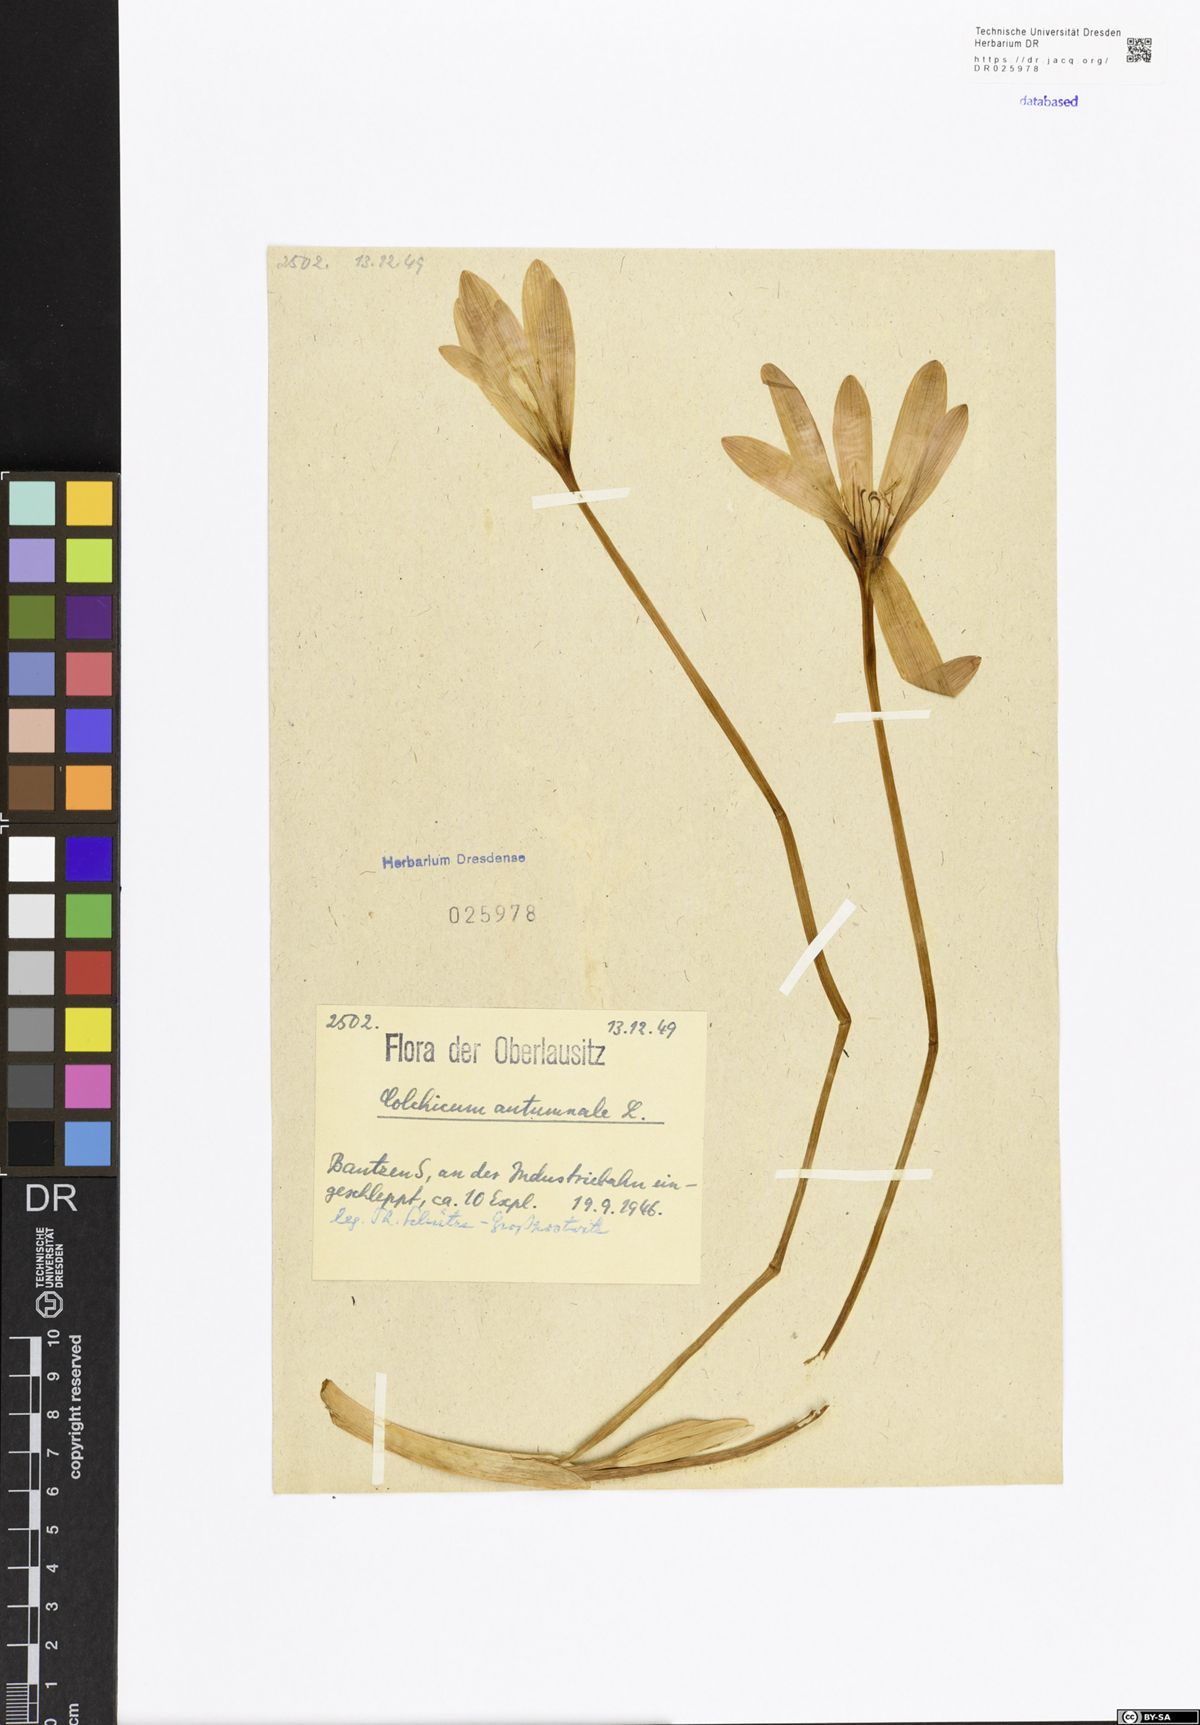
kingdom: Plantae
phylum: Tracheophyta
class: Liliopsida
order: Liliales
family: Colchicaceae
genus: Colchicum
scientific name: Colchicum autumnale
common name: Autumn crocus
